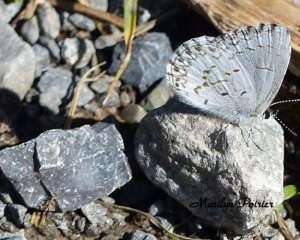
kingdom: Animalia
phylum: Arthropoda
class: Insecta
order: Lepidoptera
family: Lycaenidae
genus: Celastrina
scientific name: Celastrina lucia
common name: Northern Spring Azure
